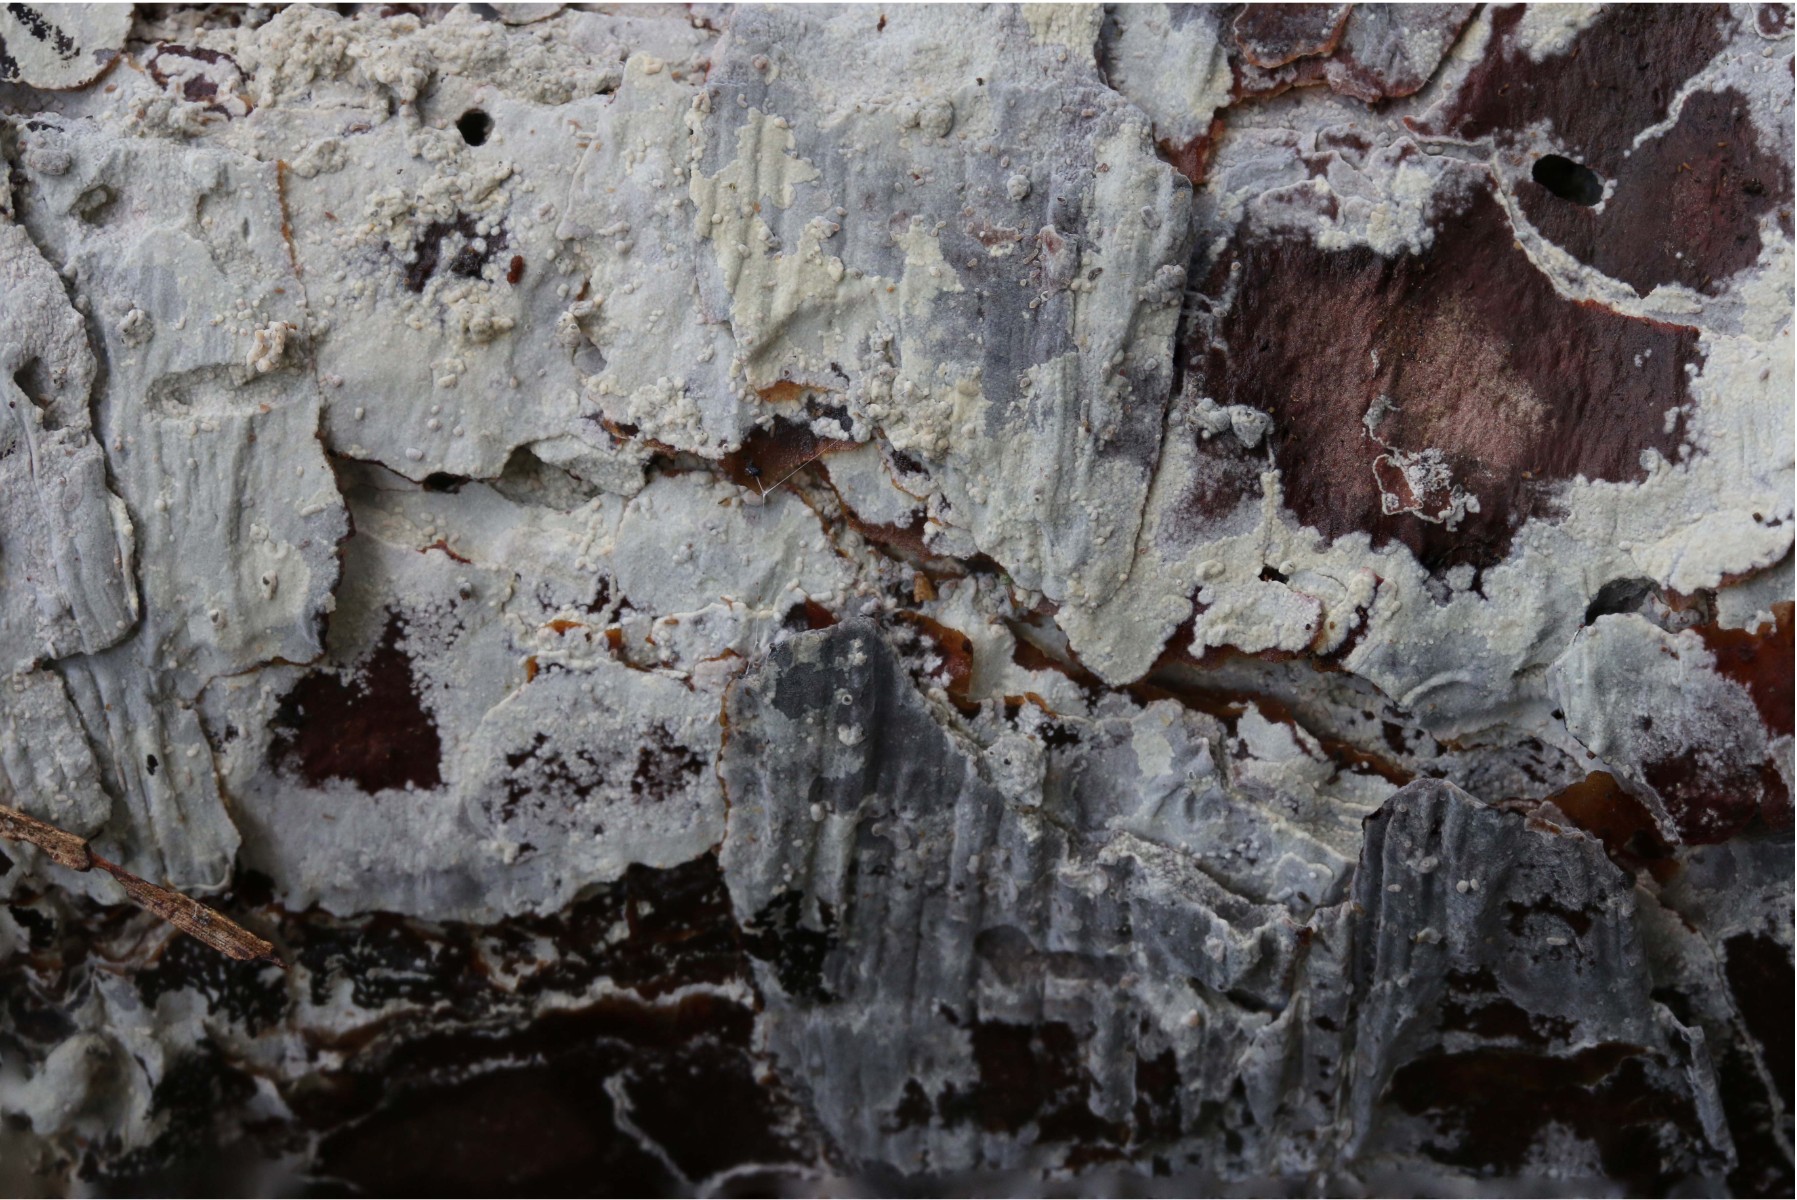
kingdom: Fungi
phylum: Basidiomycota
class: Agaricomycetes
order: Hymenochaetales
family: Hyphodontiaceae
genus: Hyphodontia
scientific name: Hyphodontia alutaria
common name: flaskerenser-nålehinde
